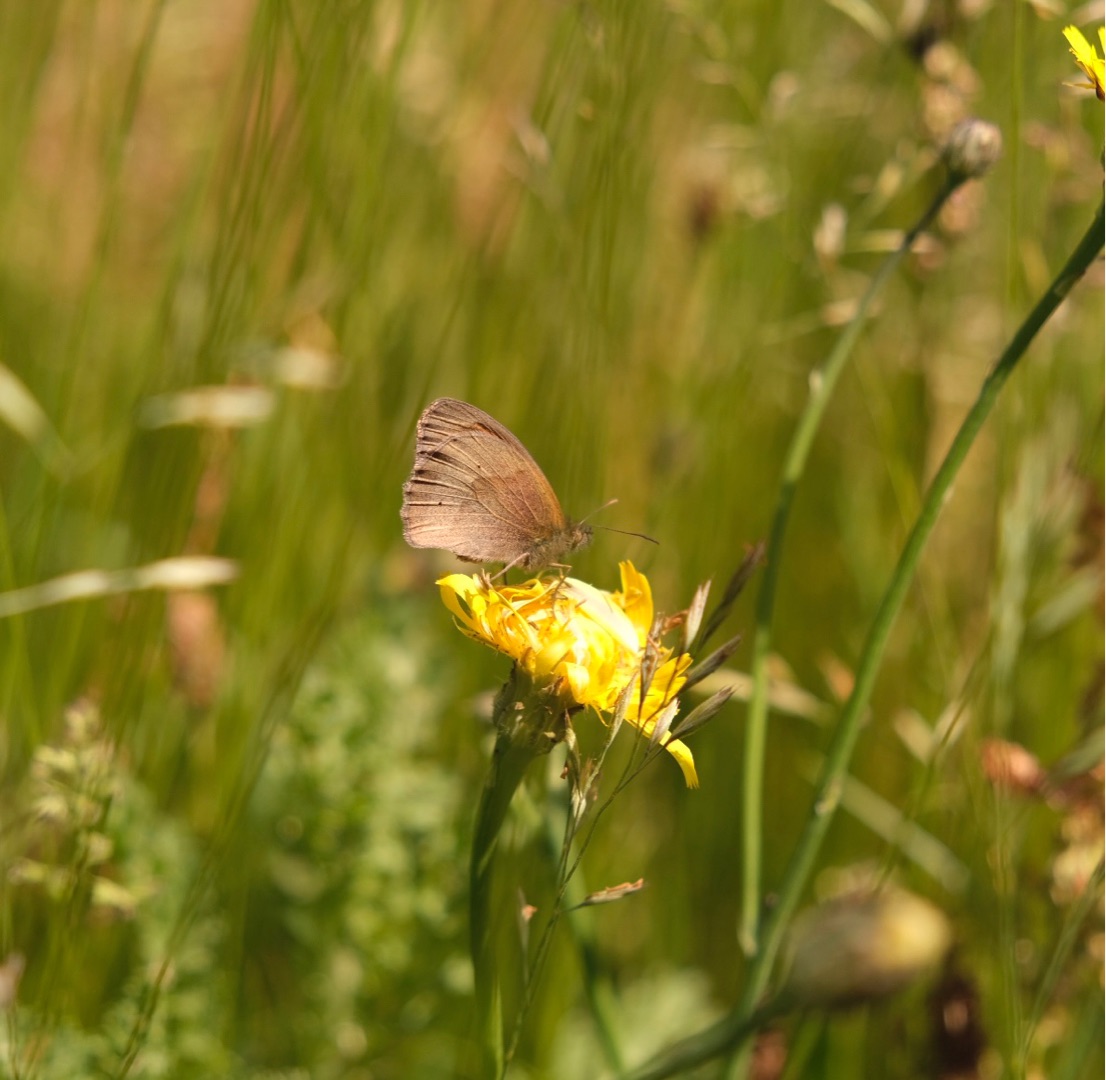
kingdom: Animalia
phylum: Arthropoda
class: Insecta
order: Lepidoptera
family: Nymphalidae
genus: Maniola
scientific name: Maniola jurtina
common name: Græsrandøje
